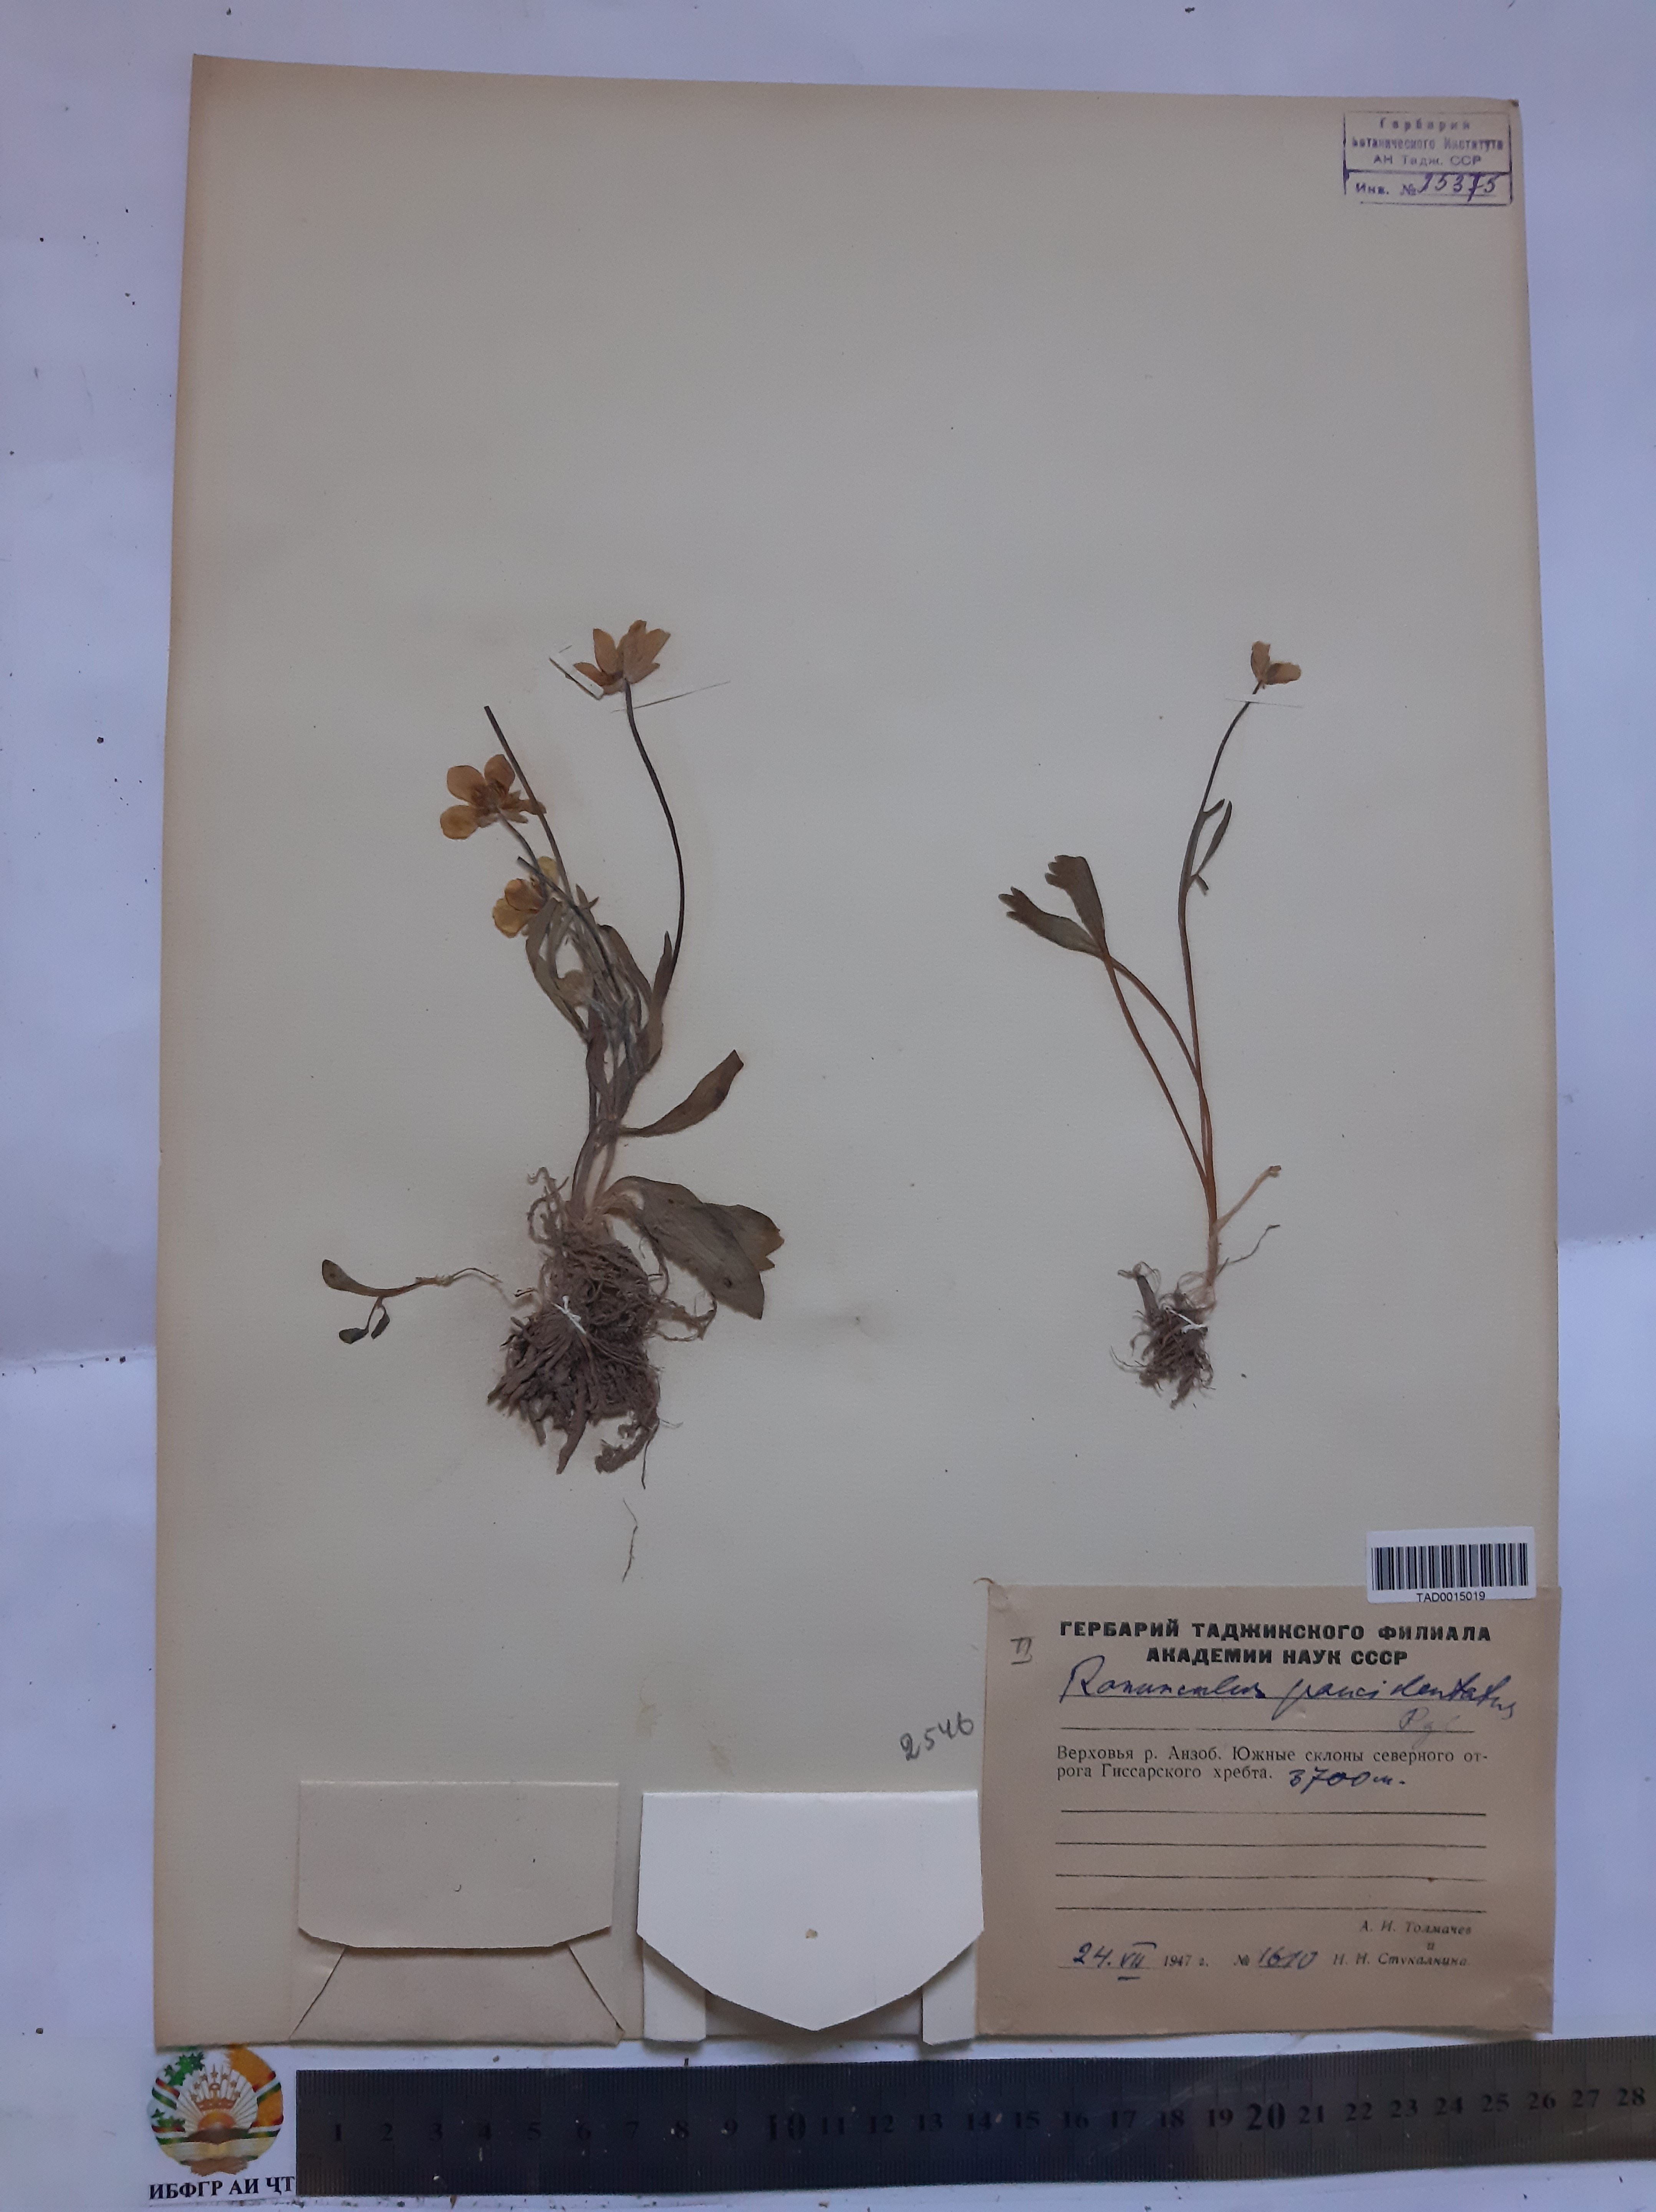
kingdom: Plantae
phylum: Tracheophyta
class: Magnoliopsida
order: Ranunculales
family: Ranunculaceae
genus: Ranunculus
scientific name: Ranunculus paucidentatus
